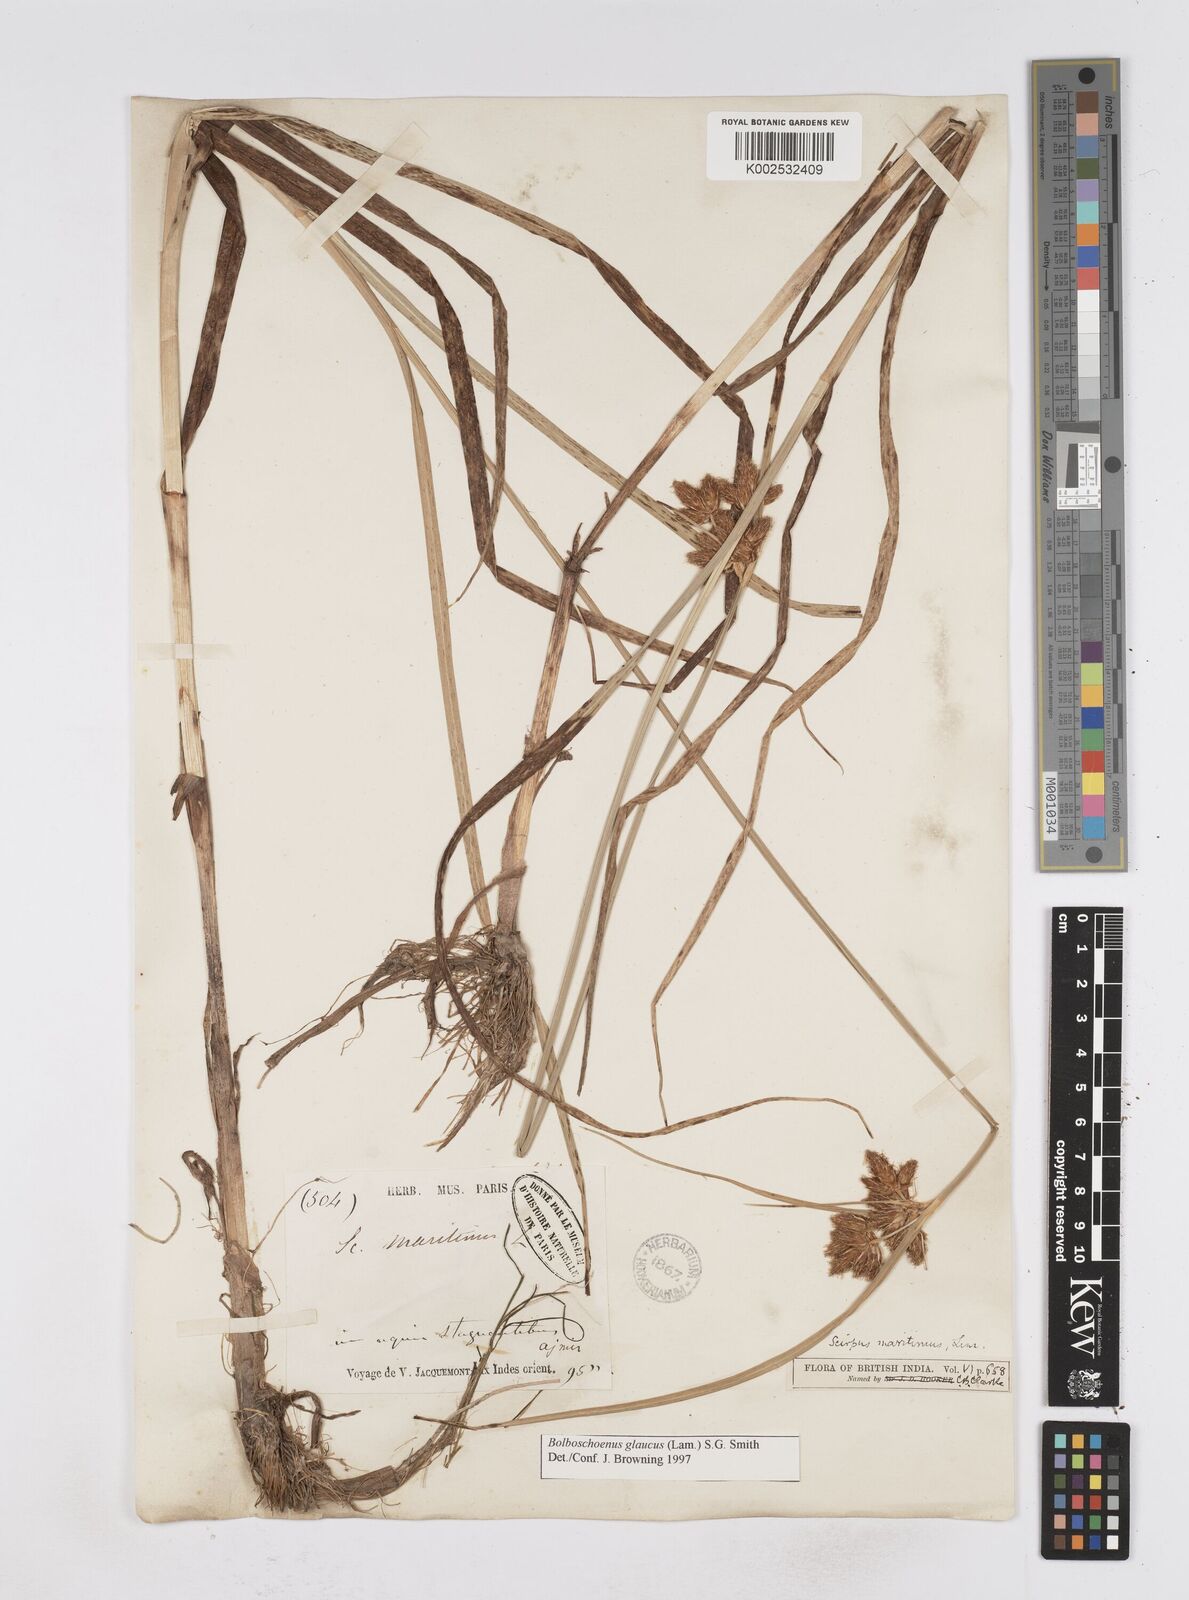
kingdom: Plantae
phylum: Tracheophyta
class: Liliopsida
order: Poales
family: Cyperaceae
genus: Bolboschoenus
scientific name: Bolboschoenus maritimus
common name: Sea club-rush
